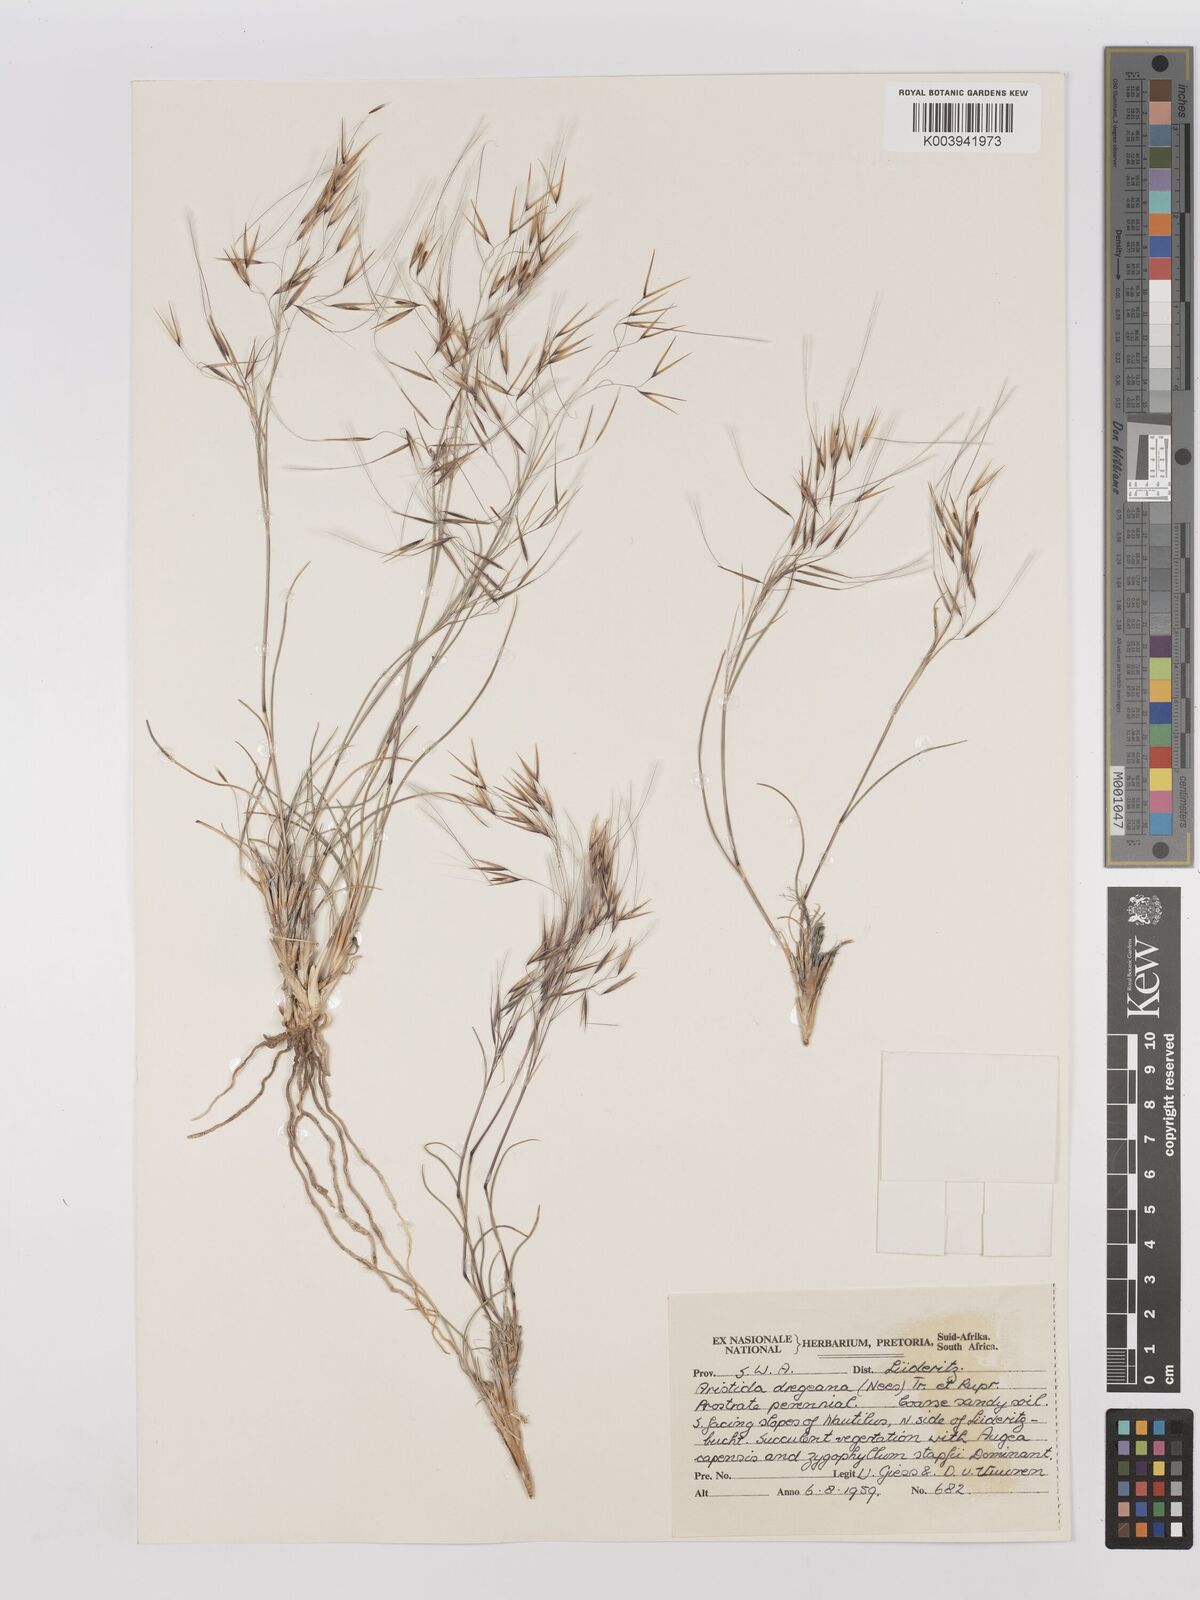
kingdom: Plantae
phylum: Tracheophyta
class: Liliopsida
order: Poales
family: Poaceae
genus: Stipagrostis
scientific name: Stipagrostis dregeana
